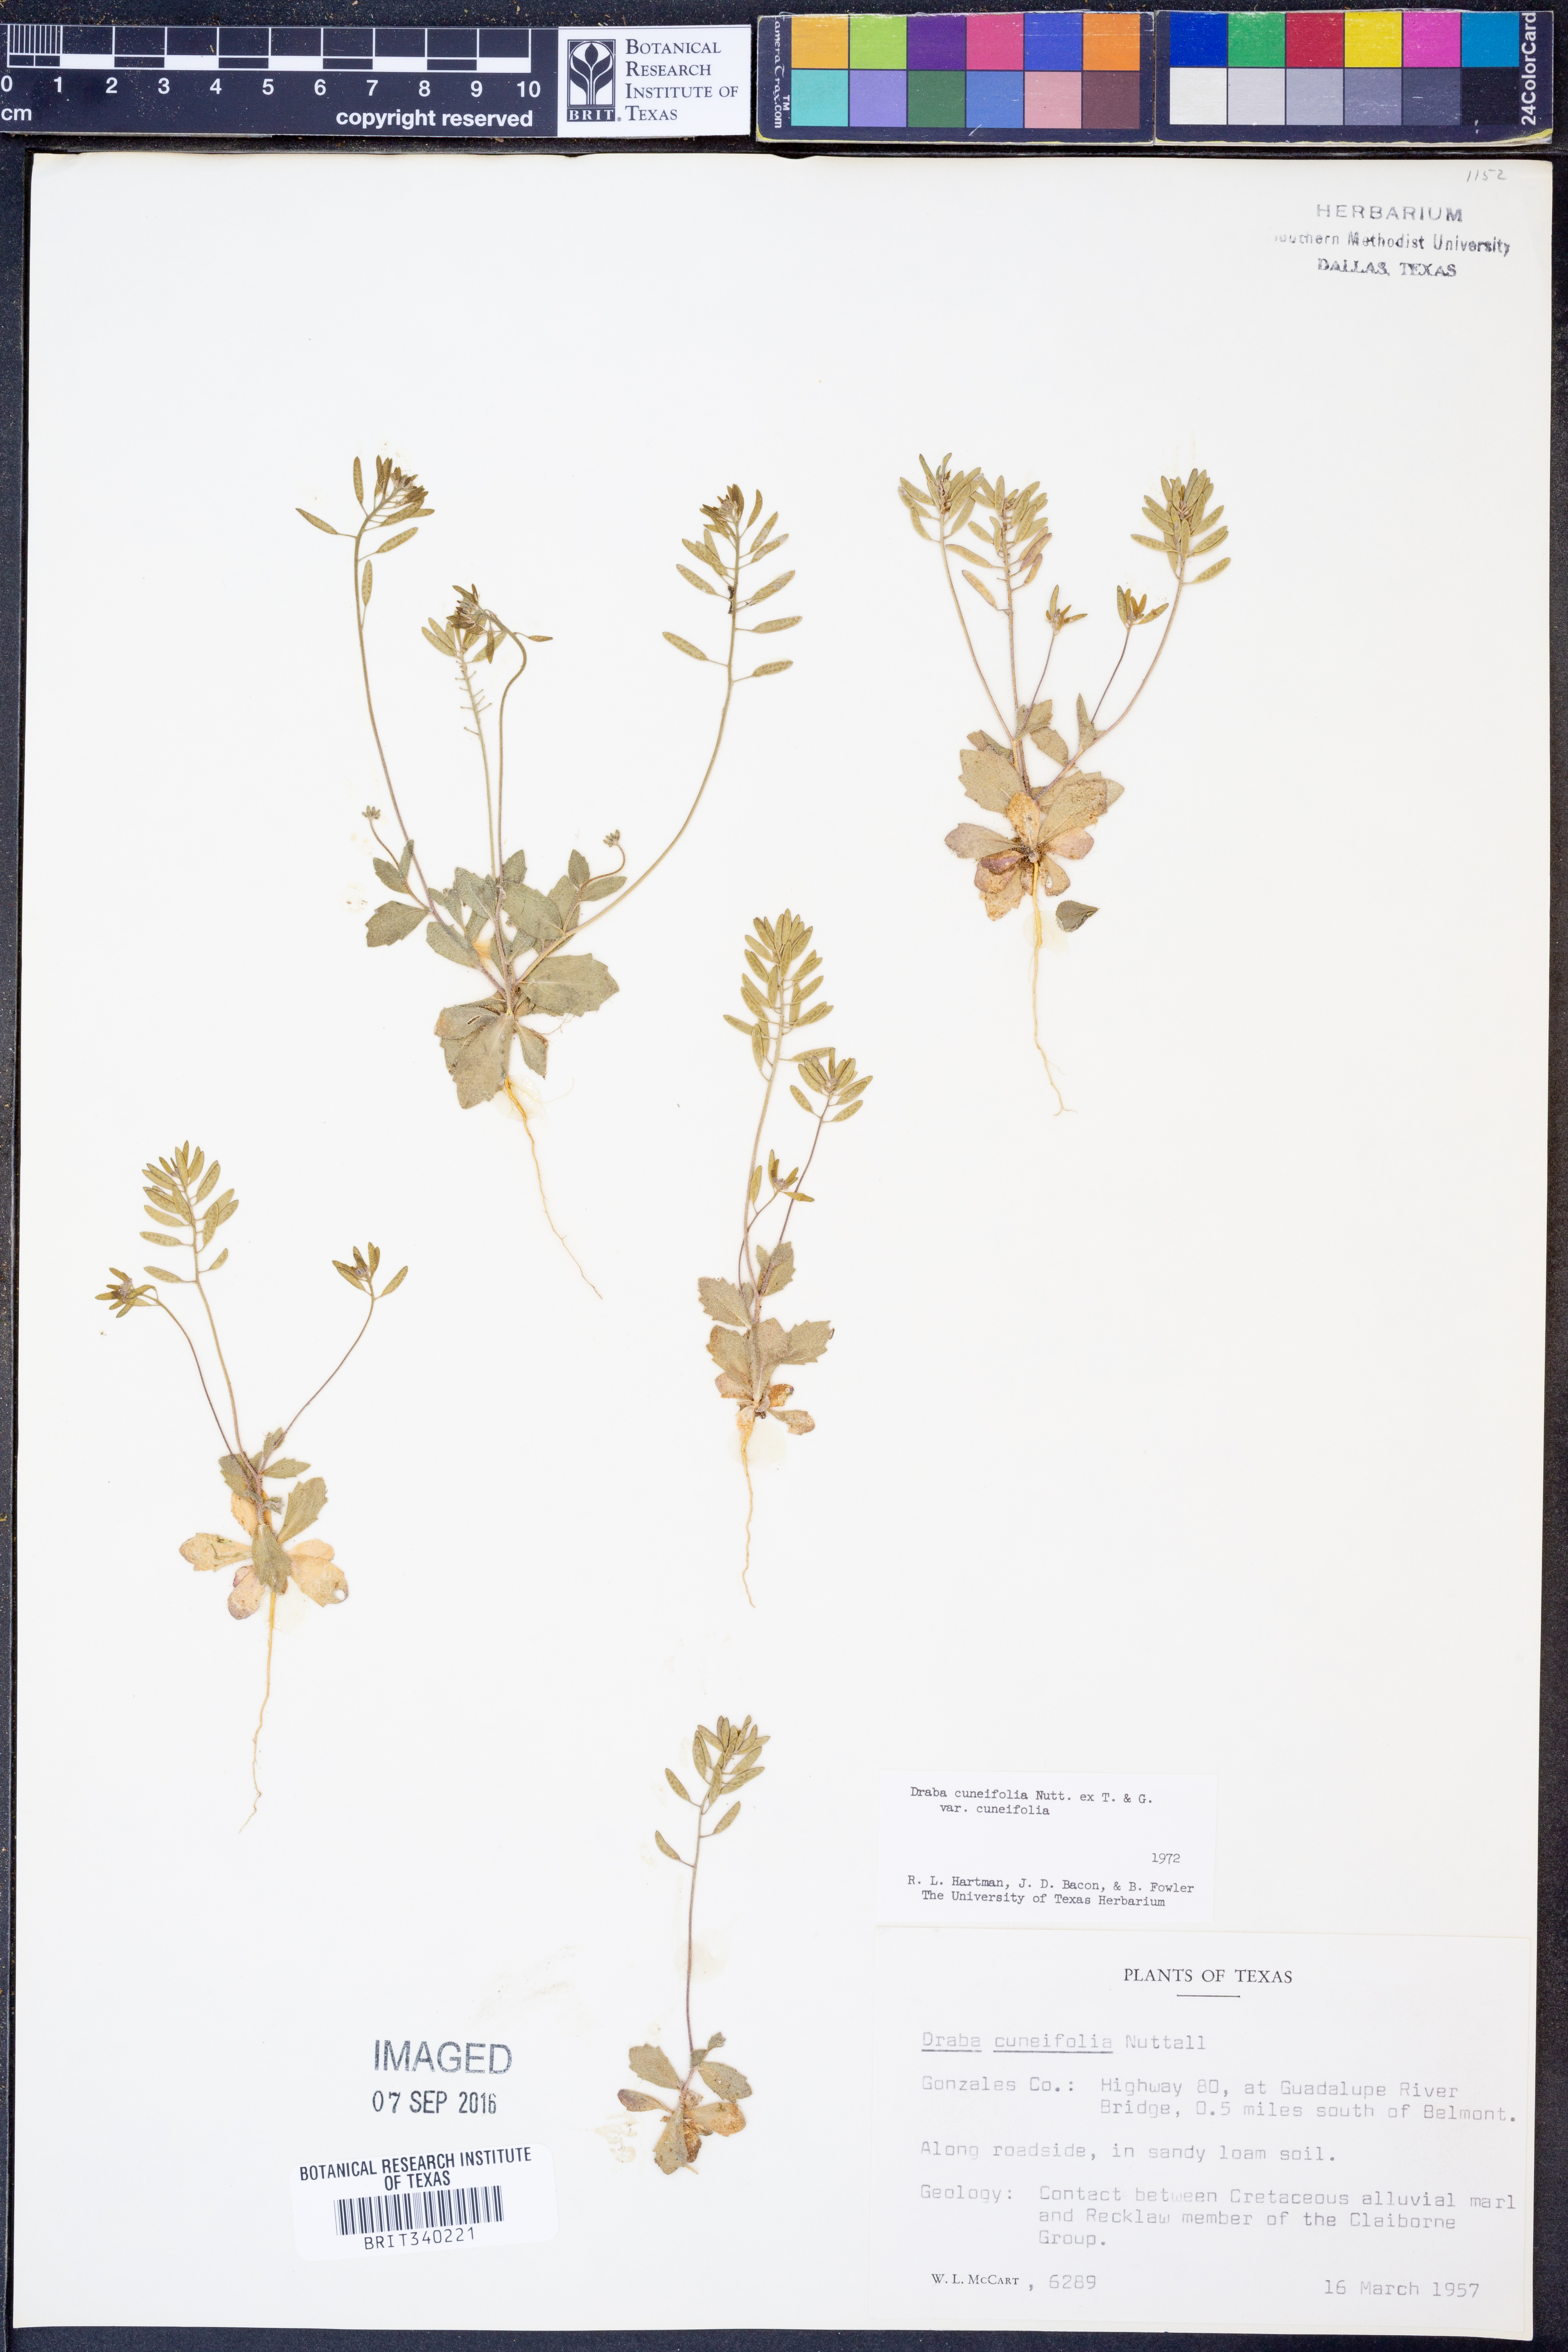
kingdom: Plantae
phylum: Tracheophyta
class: Magnoliopsida
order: Brassicales
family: Brassicaceae
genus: Tomostima
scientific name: Tomostima cuneifolia
